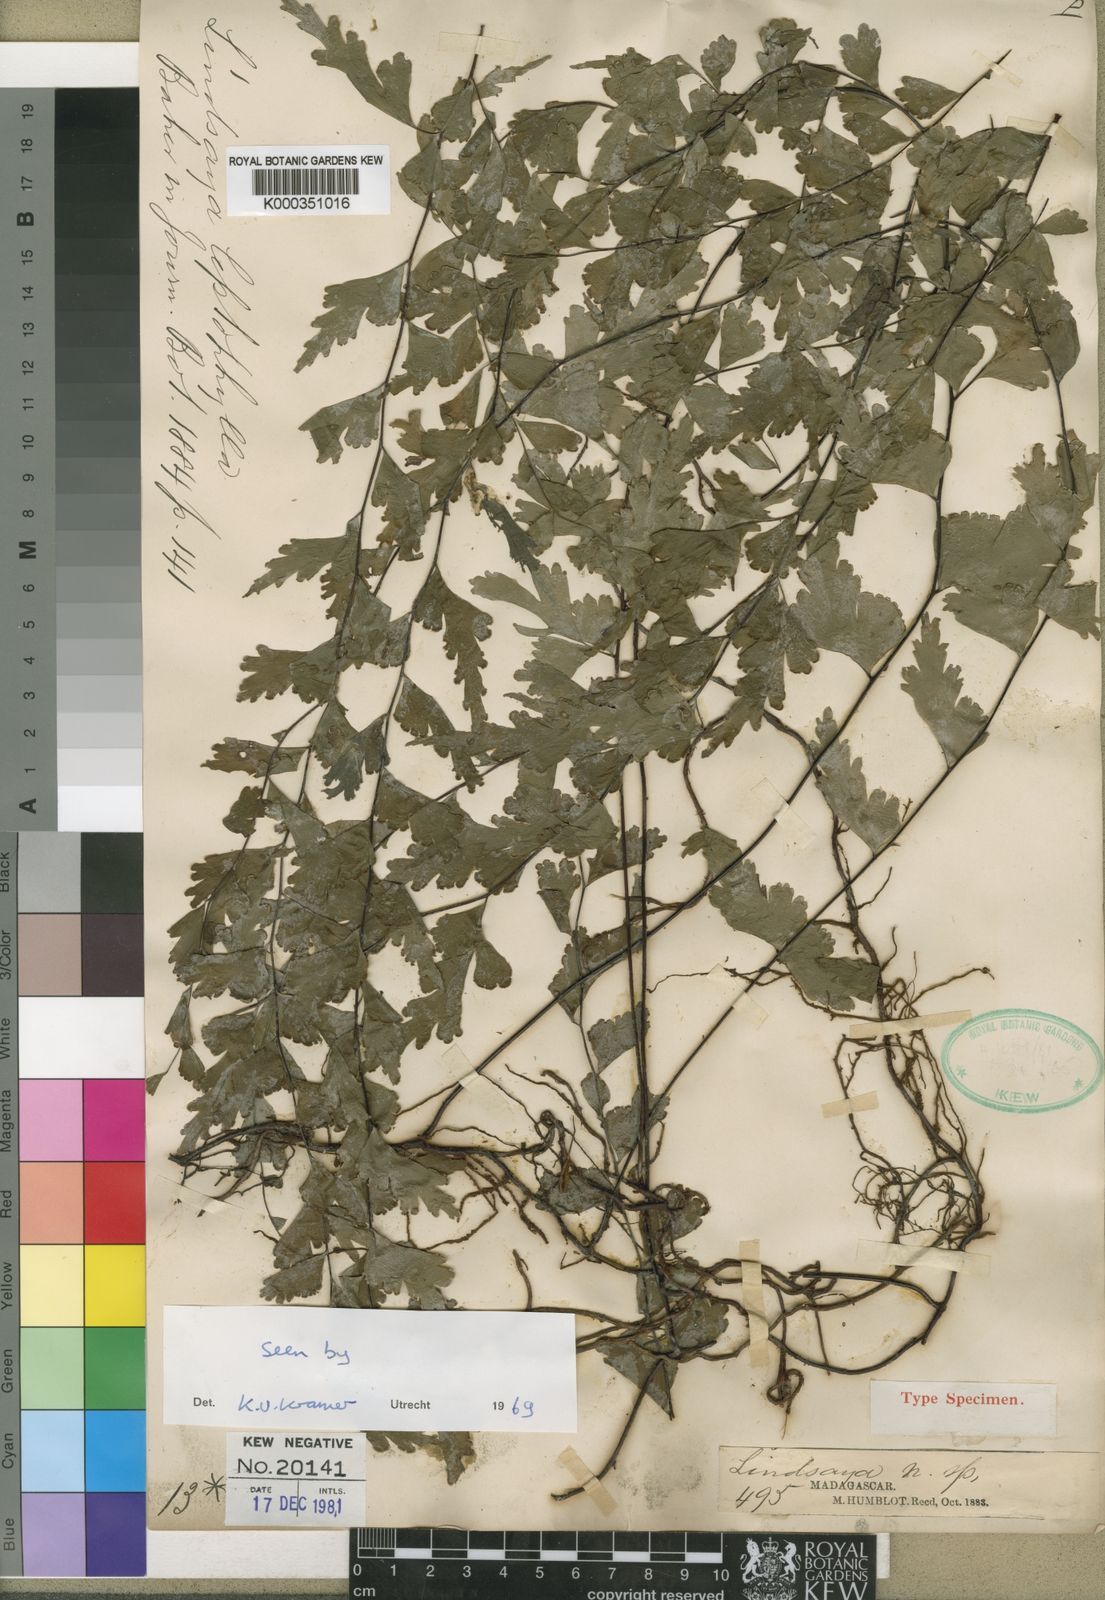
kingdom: Plantae
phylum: Tracheophyta
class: Polypodiopsida
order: Polypodiales
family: Lindsaeaceae
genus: Lindsaea
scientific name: Lindsaea leptophylla
